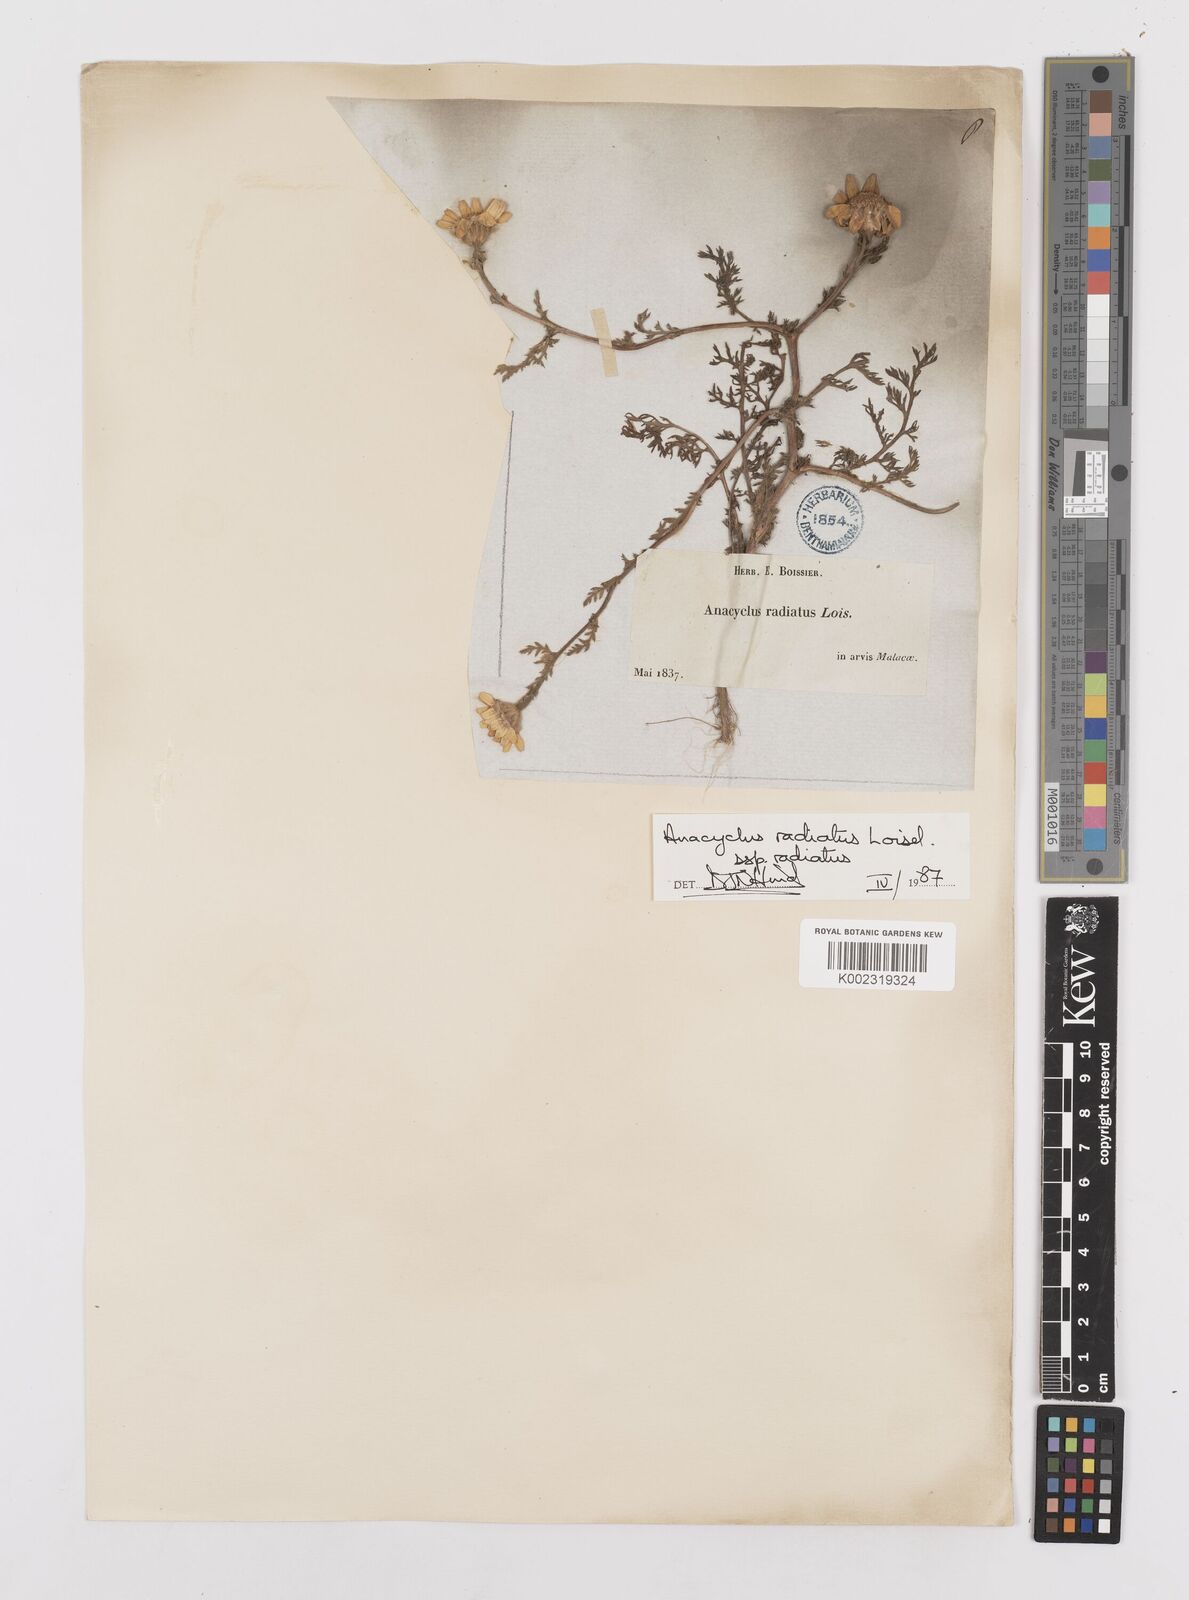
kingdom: Plantae
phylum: Tracheophyta
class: Magnoliopsida
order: Asterales
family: Asteraceae
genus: Anacyclus
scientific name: Anacyclus radiatus
